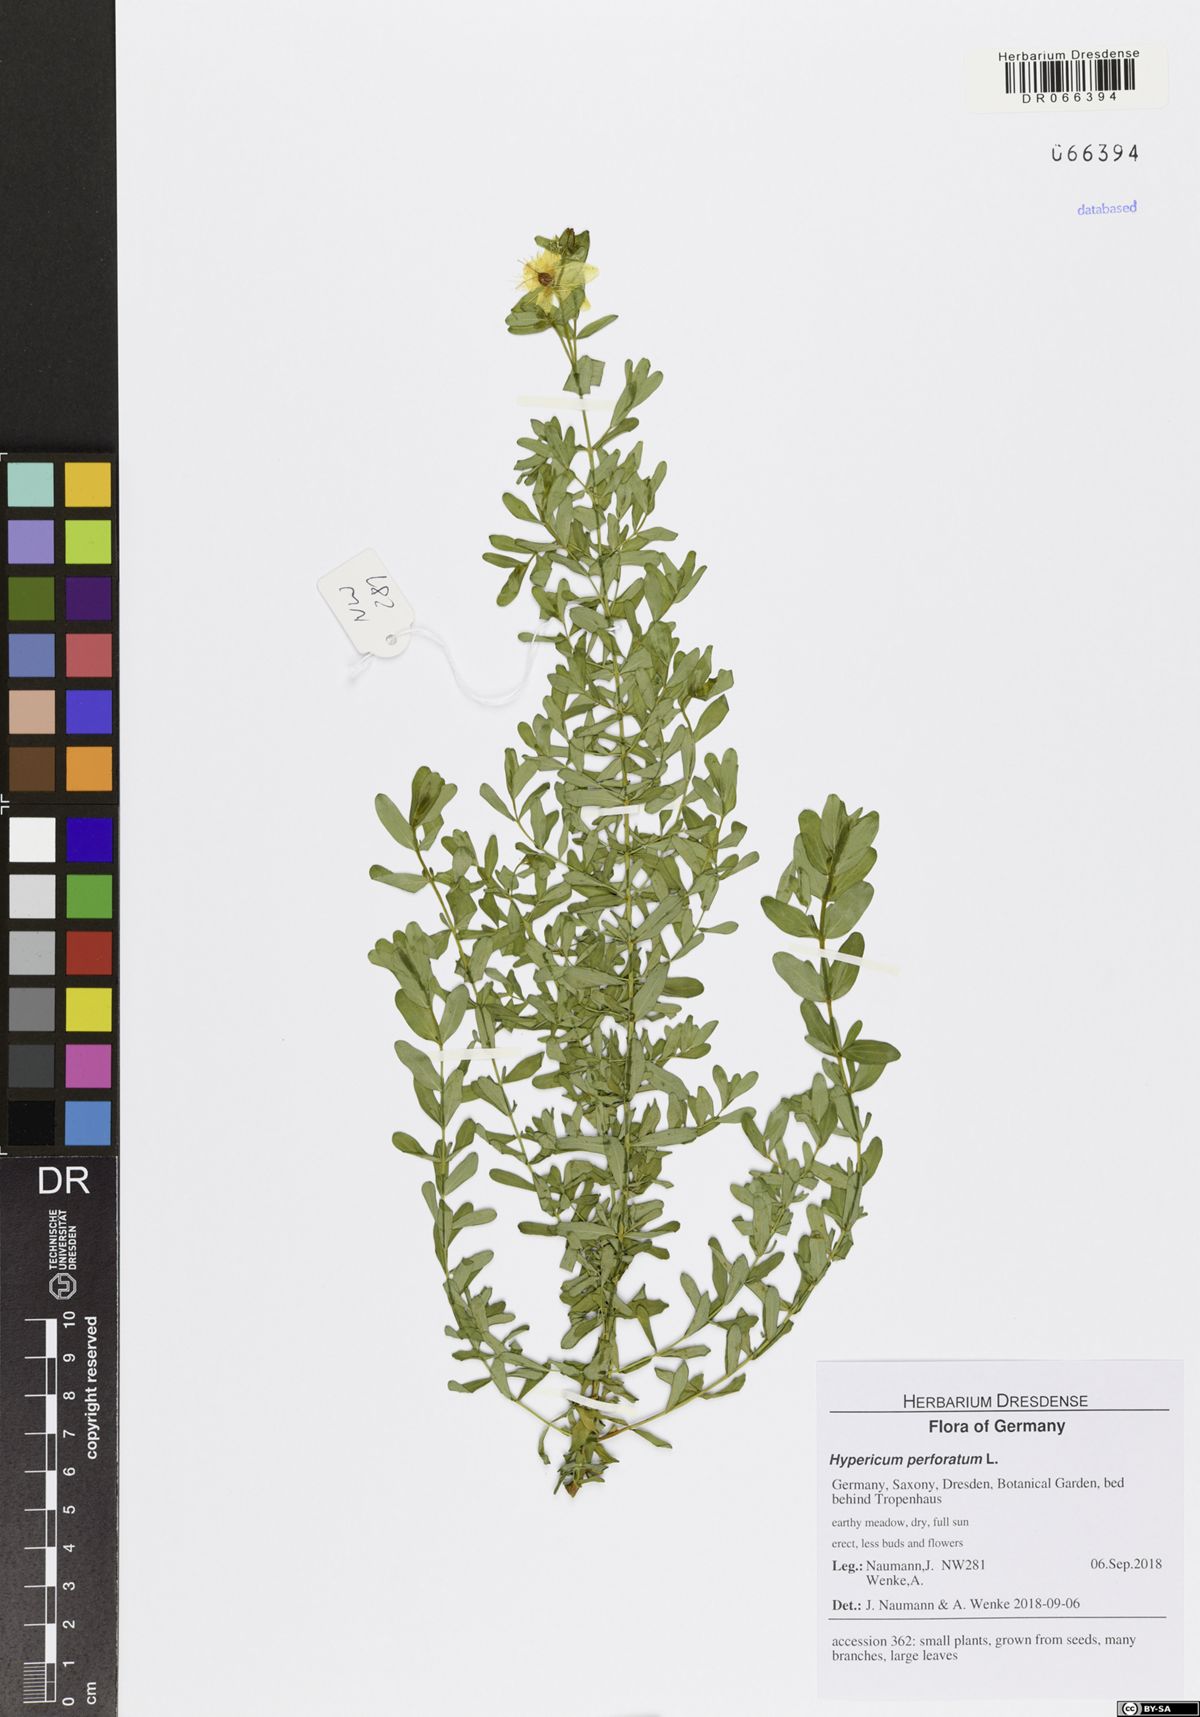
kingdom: Plantae
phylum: Tracheophyta
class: Magnoliopsida
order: Malpighiales
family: Hypericaceae
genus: Hypericum
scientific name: Hypericum perforatum
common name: Common st. johnswort
